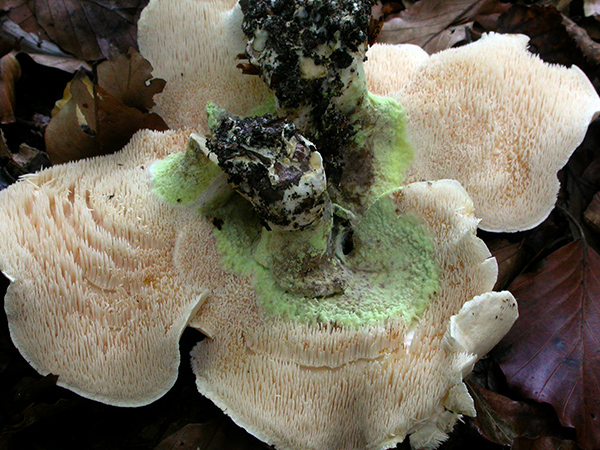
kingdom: Fungi
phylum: Basidiomycota
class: Agaricomycetes
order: Russulales
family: Xenasmataceae
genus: Xenasmatella
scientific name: Xenasmatella vaga
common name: svovl-strenghinde
